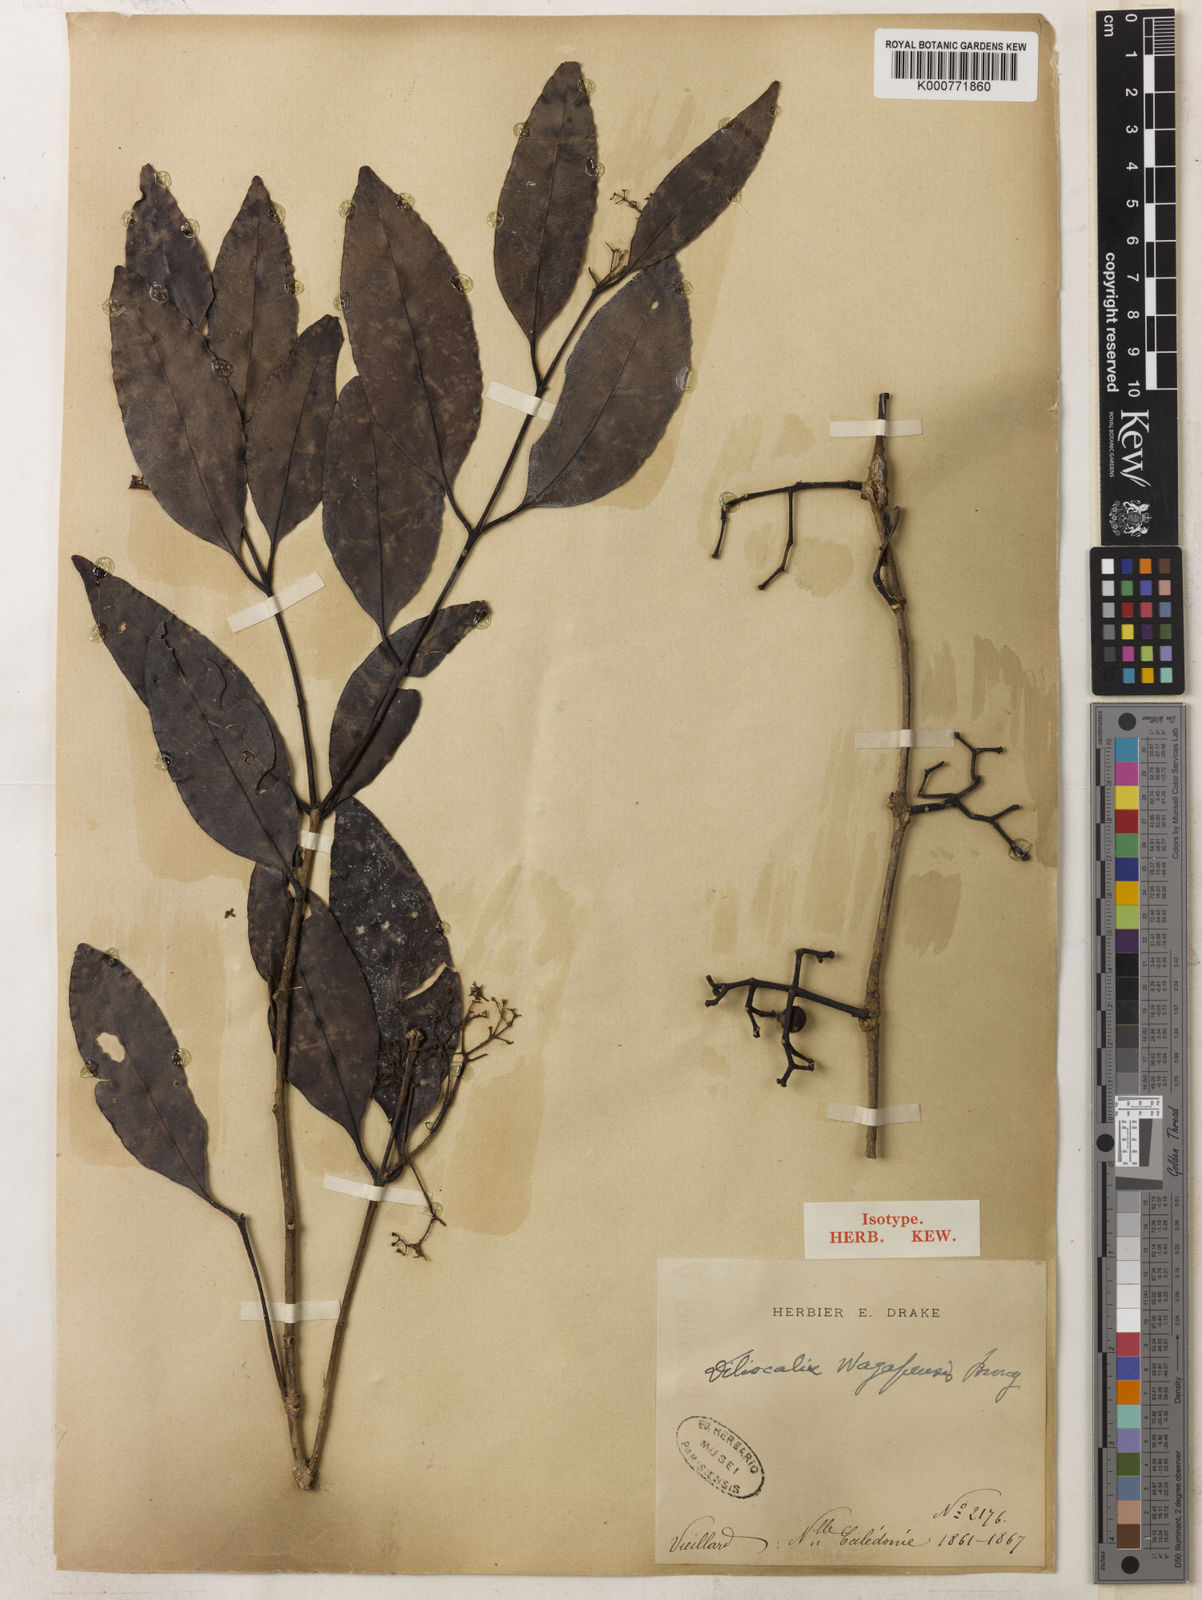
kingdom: Plantae
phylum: Tracheophyta
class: Magnoliopsida
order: Myrtales
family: Myrtaceae
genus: Syzygium
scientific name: Syzygium
